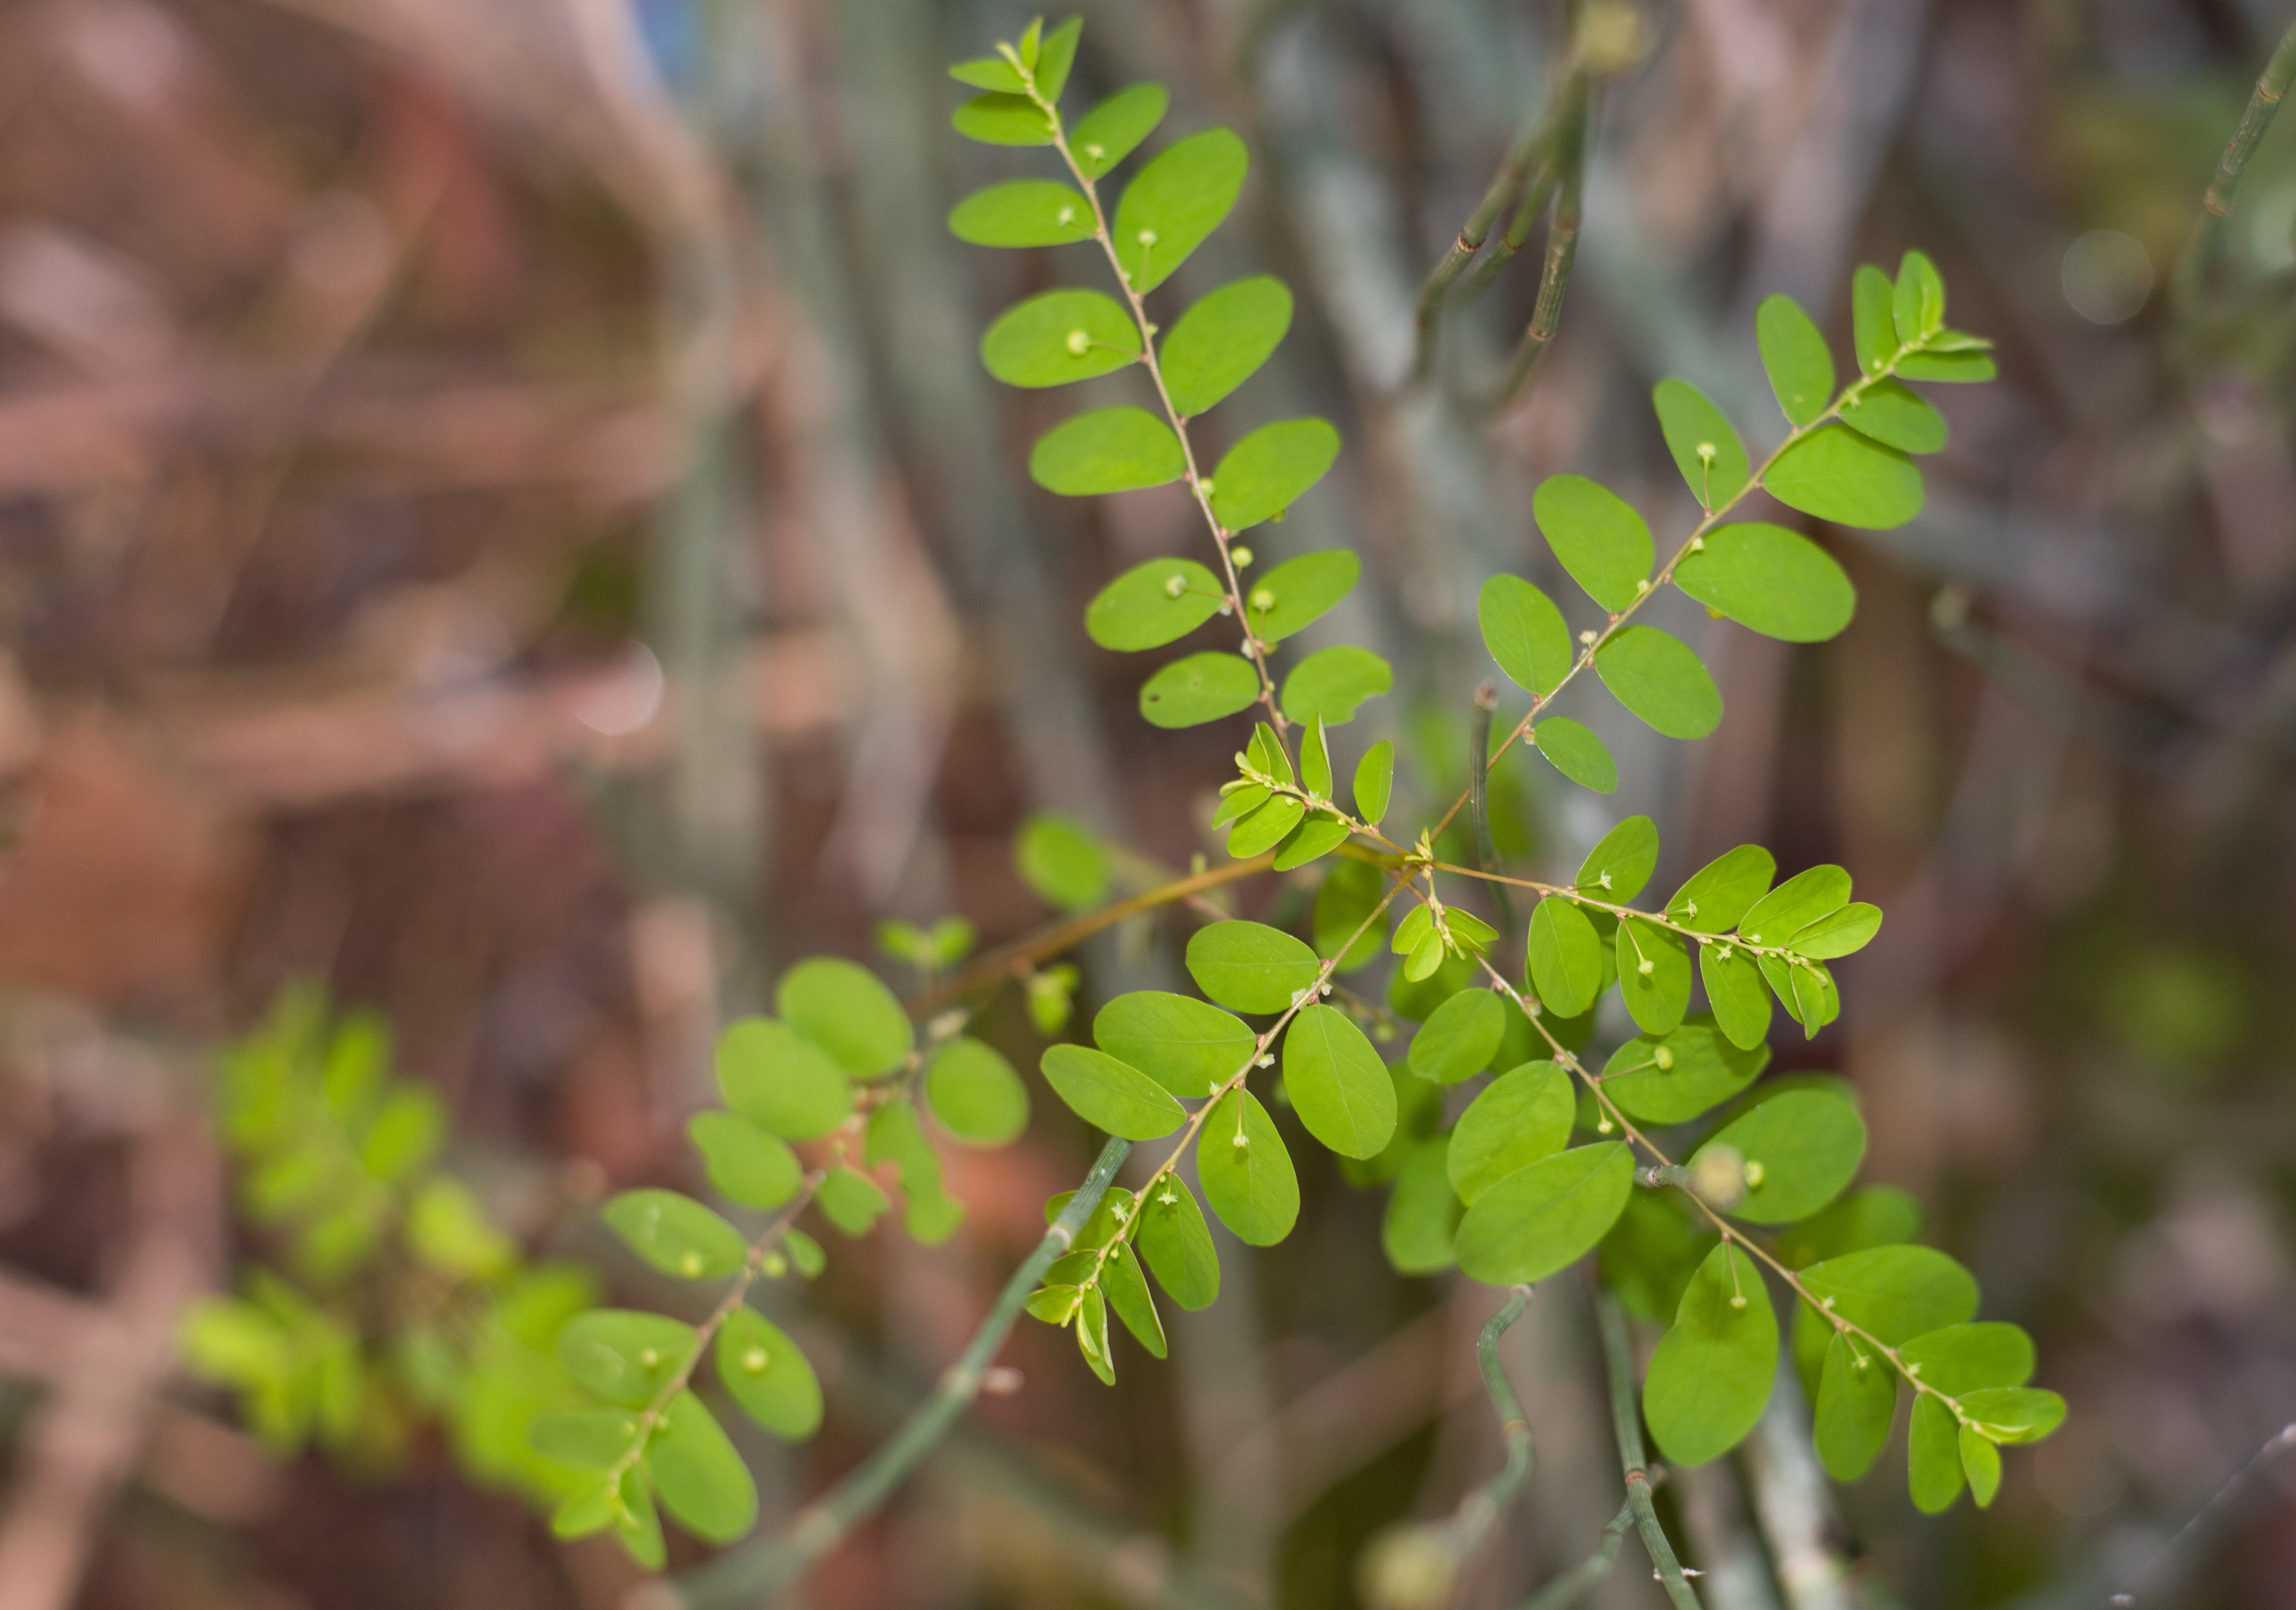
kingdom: Plantae
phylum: Tracheophyta
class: Magnoliopsida
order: Malpighiales
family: Phyllanthaceae
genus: Phyllanthus
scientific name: Phyllanthus tenellus
